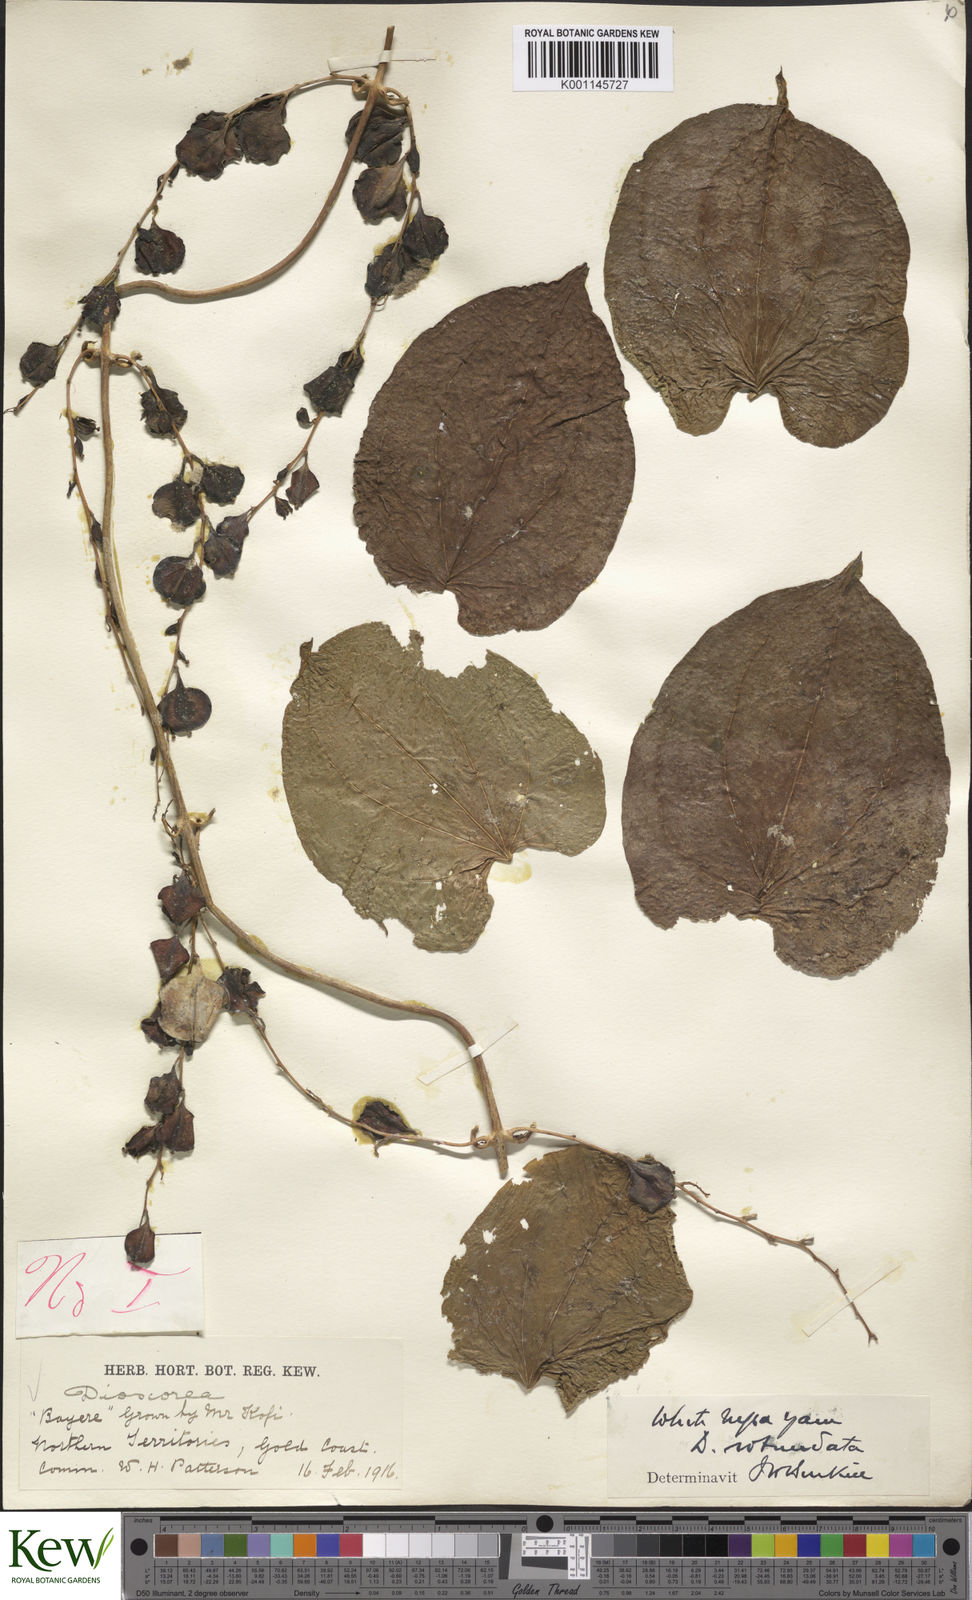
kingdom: Plantae
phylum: Tracheophyta
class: Liliopsida
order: Dioscoreales
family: Dioscoreaceae
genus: Dioscorea
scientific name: Dioscorea cayenensis
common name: Attoto yam
